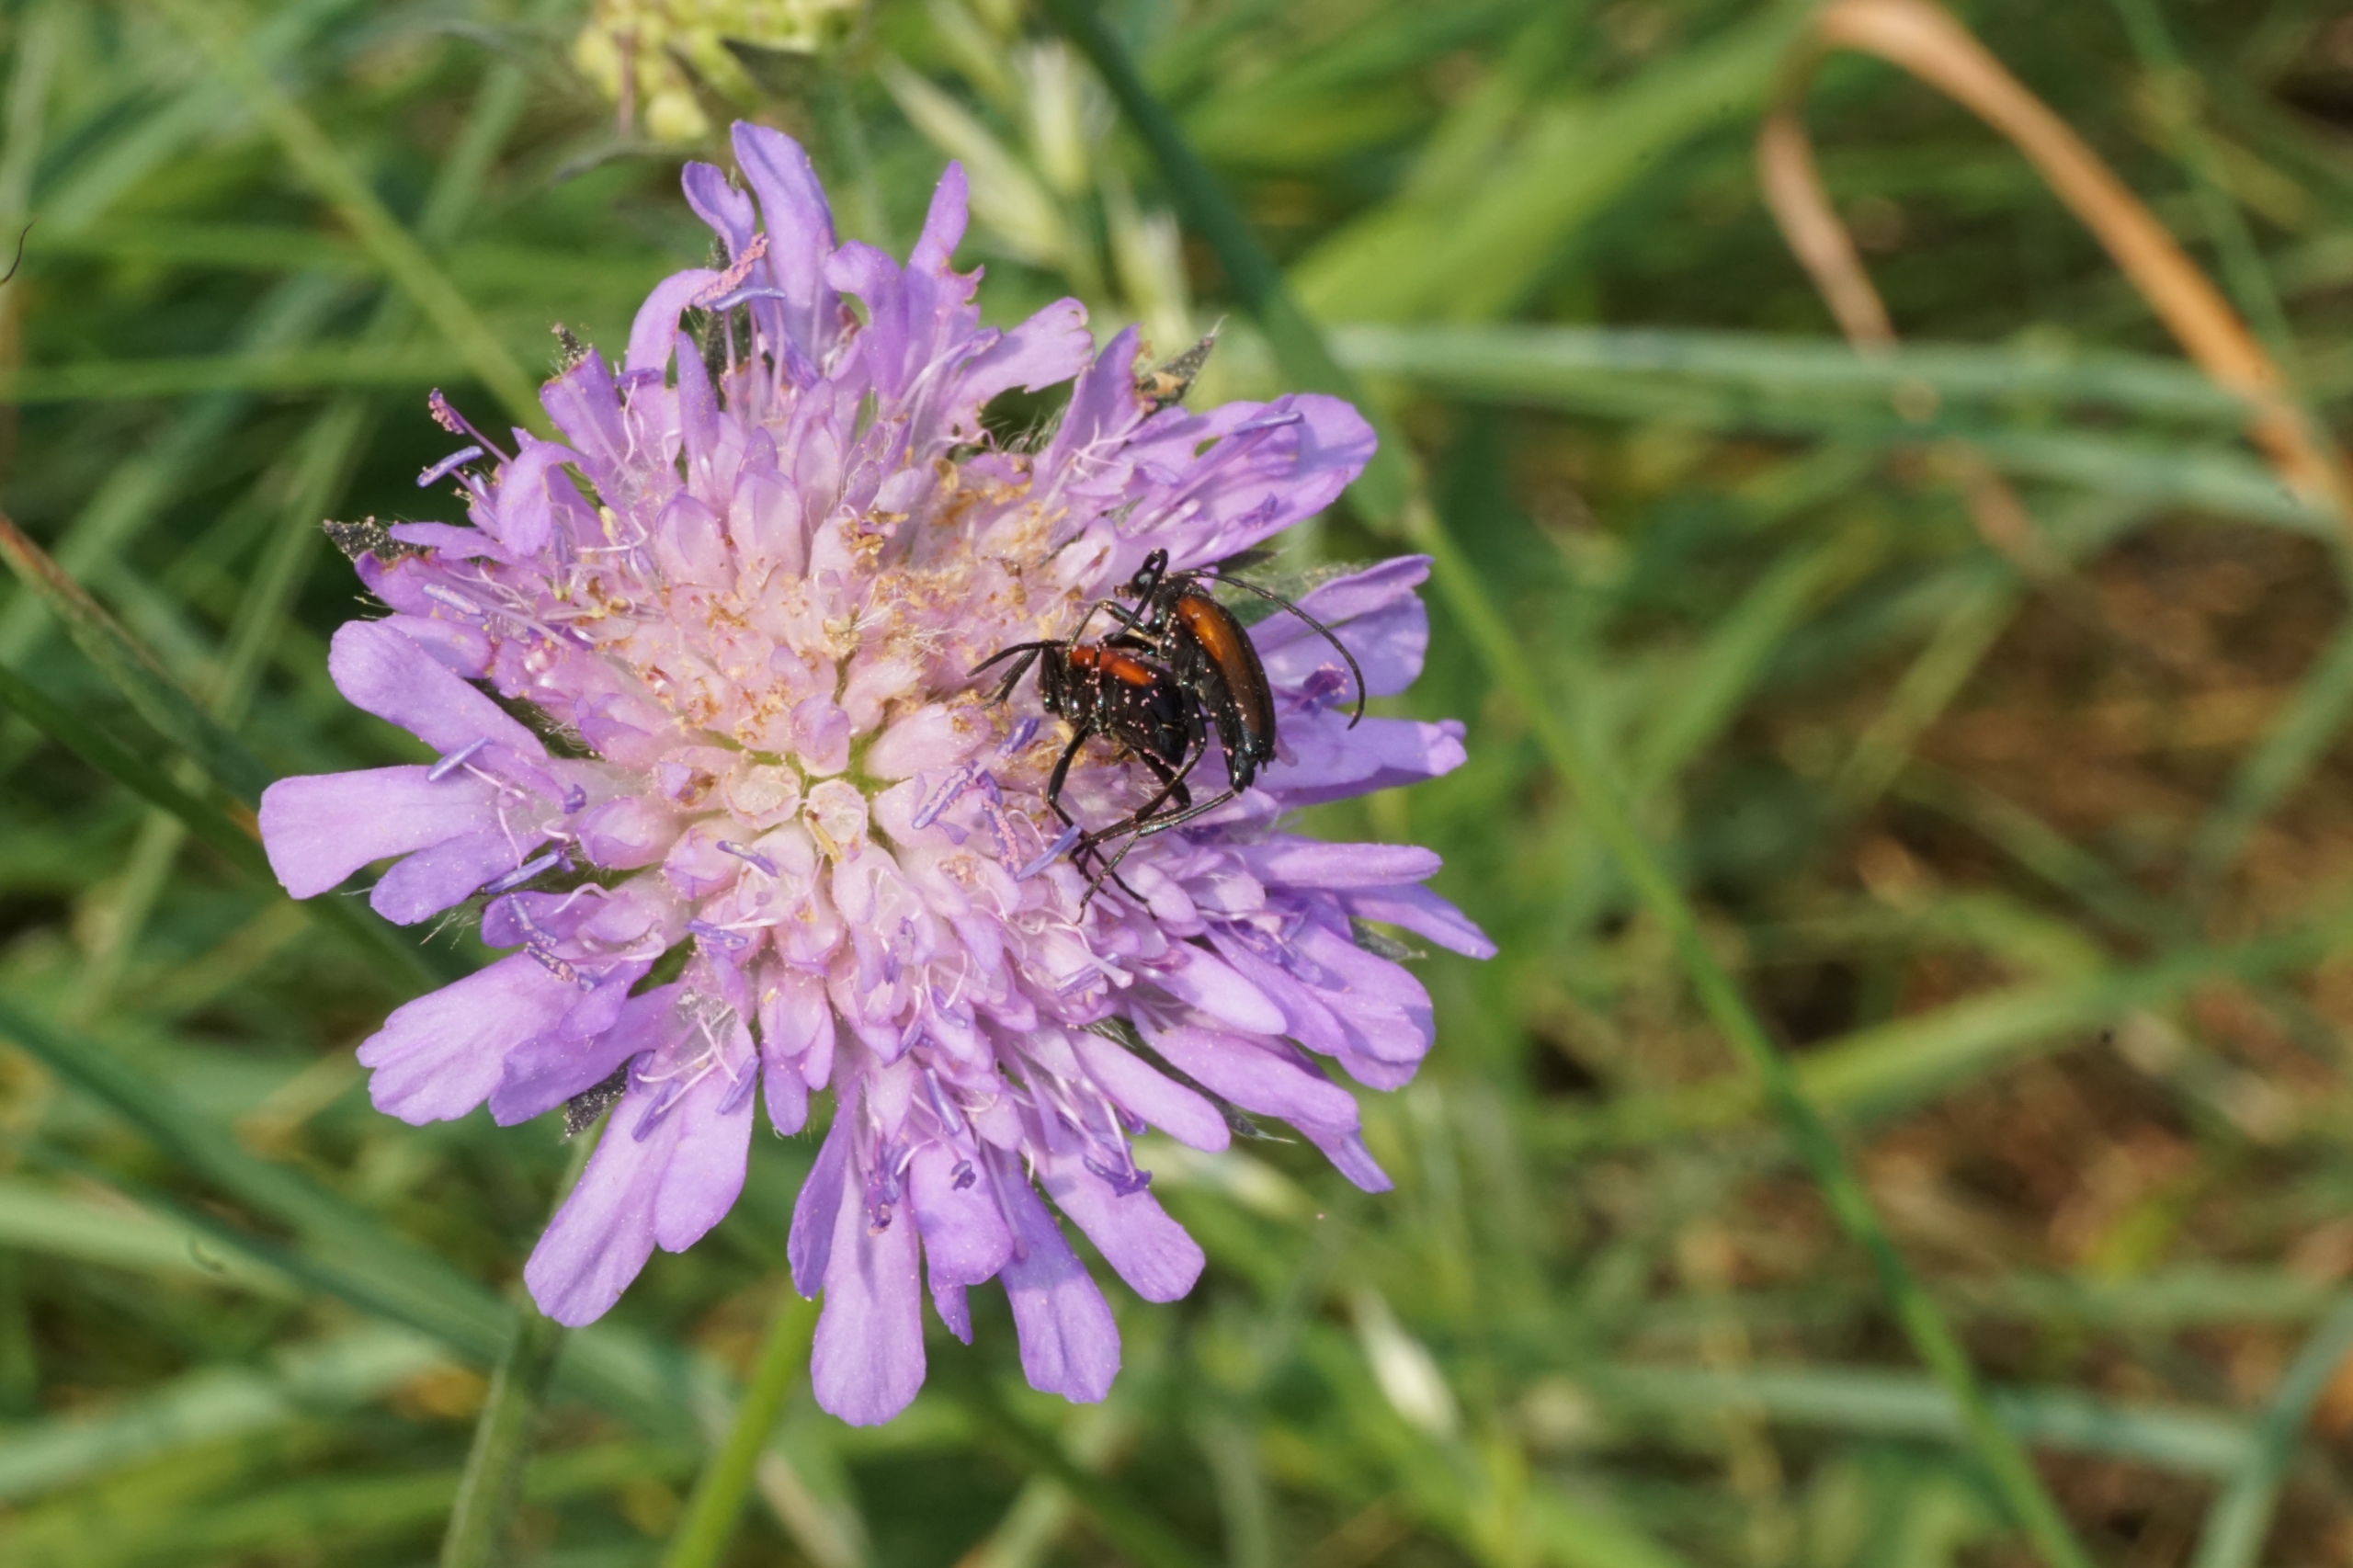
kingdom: Animalia
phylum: Arthropoda
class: Insecta
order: Coleoptera
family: Cerambycidae
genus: Stenurella
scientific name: Stenurella melanura
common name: Sortsømmet blomsterbuk
